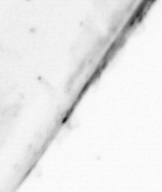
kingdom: Animalia
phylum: Chaetognatha
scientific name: Chaetognatha
